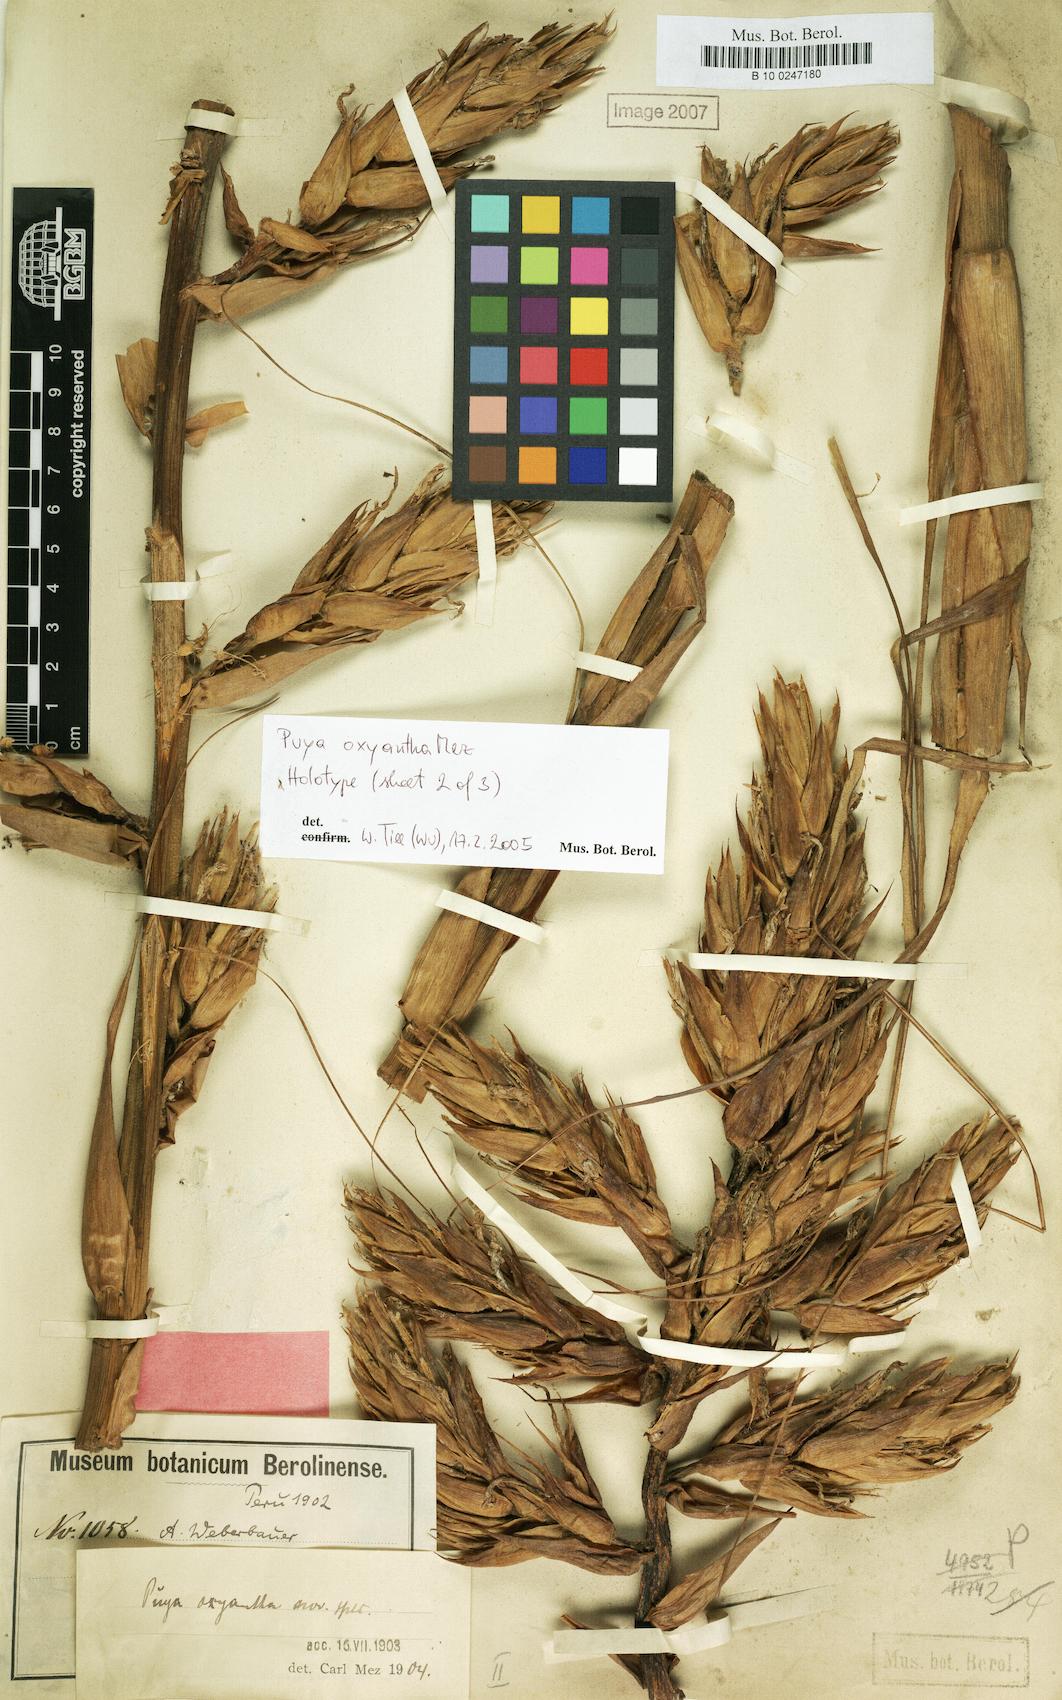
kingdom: Plantae
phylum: Tracheophyta
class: Liliopsida
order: Poales
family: Bromeliaceae
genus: Puya
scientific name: Puya oxyantha
